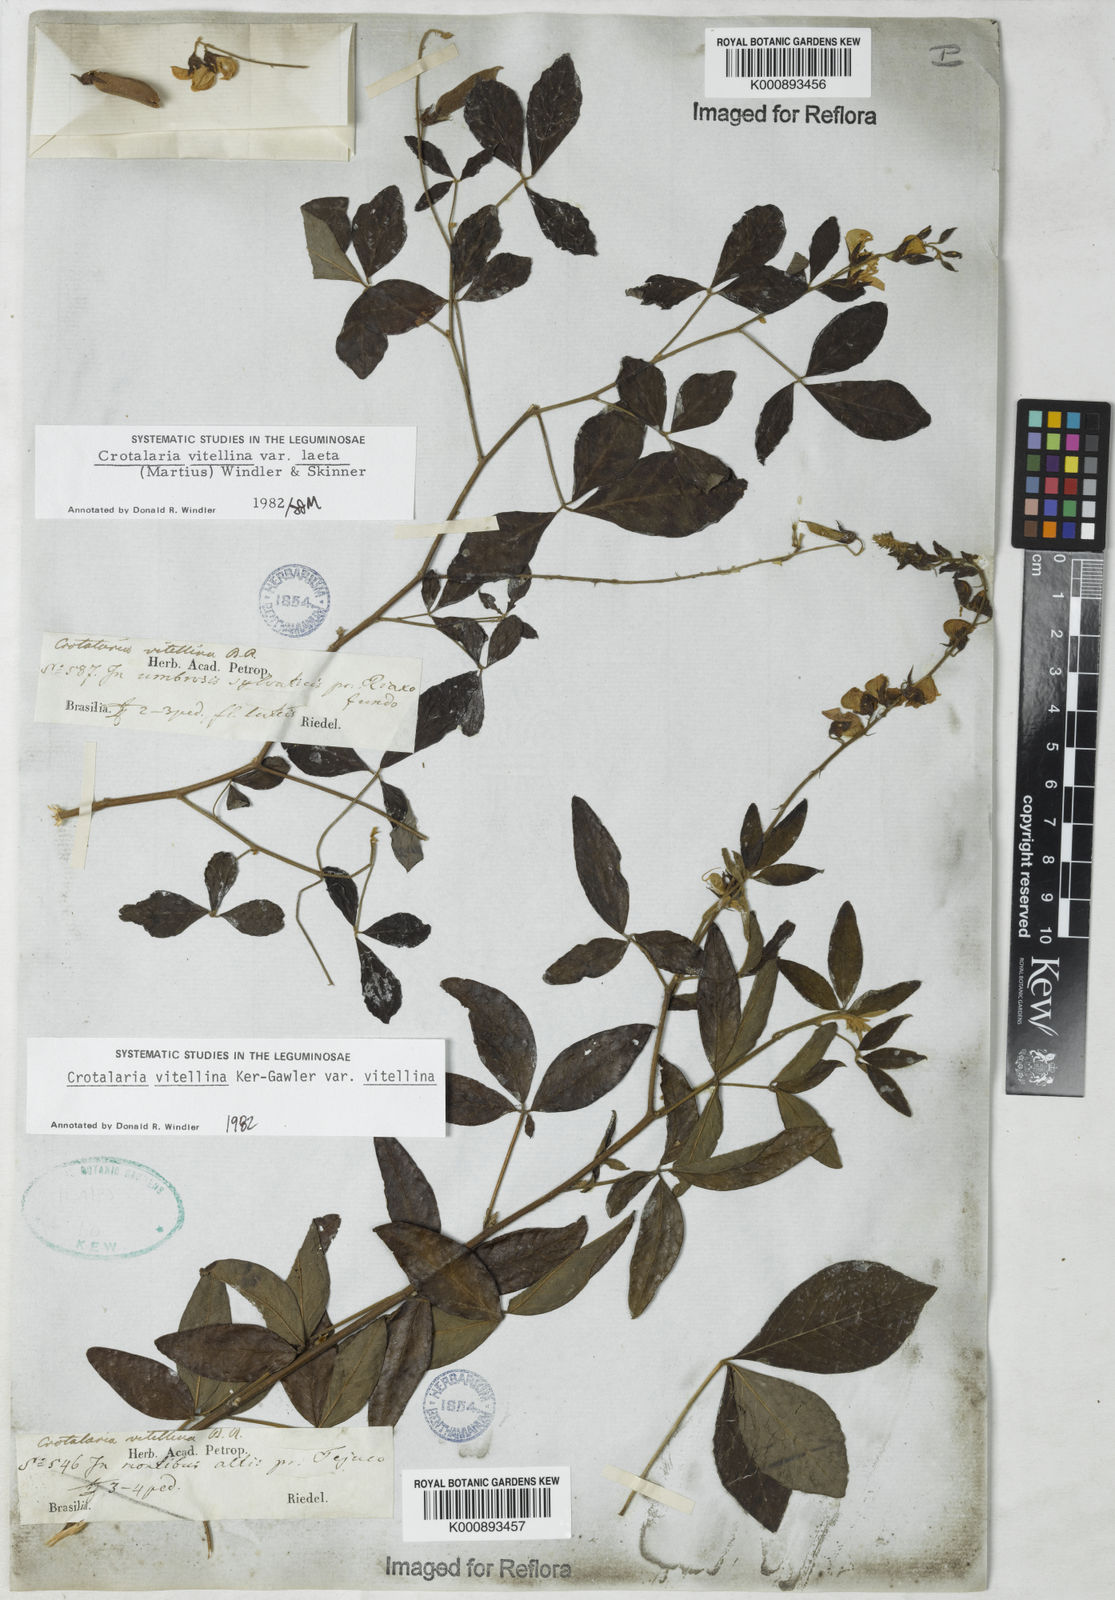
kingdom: Plantae
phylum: Tracheophyta
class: Magnoliopsida
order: Fabales
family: Fabaceae
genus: Crotalaria
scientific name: Crotalaria laeta
